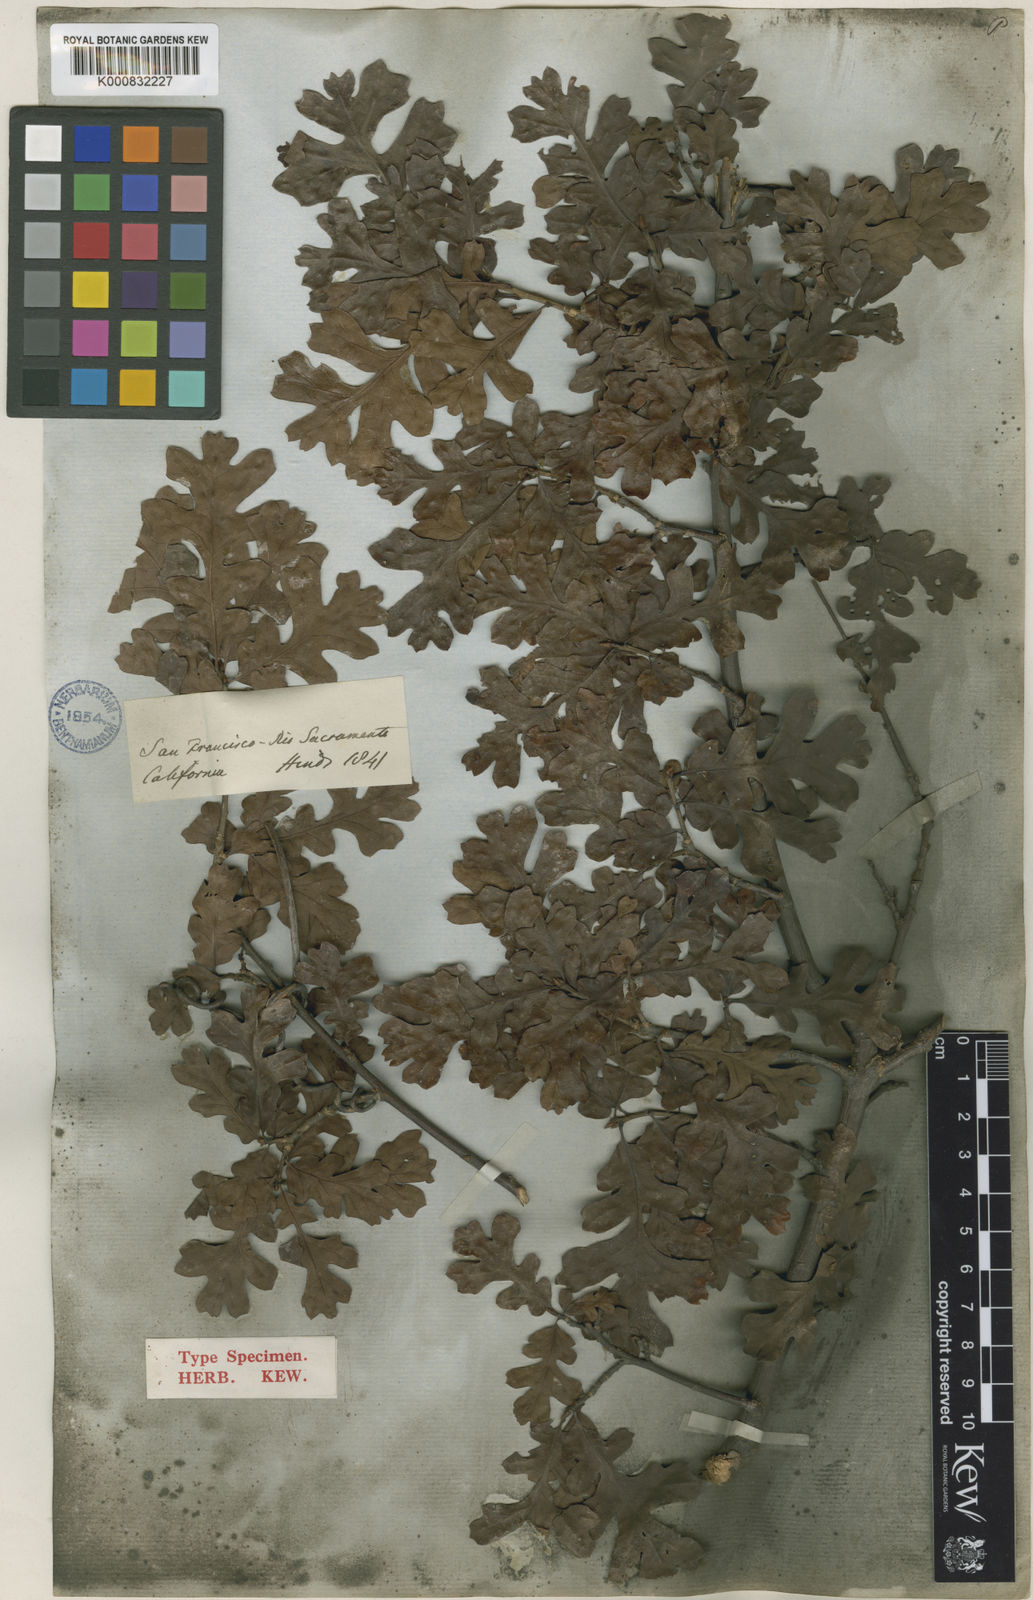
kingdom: Plantae
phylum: Tracheophyta
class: Magnoliopsida
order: Fagales
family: Fagaceae
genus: Quercus
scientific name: Quercus
